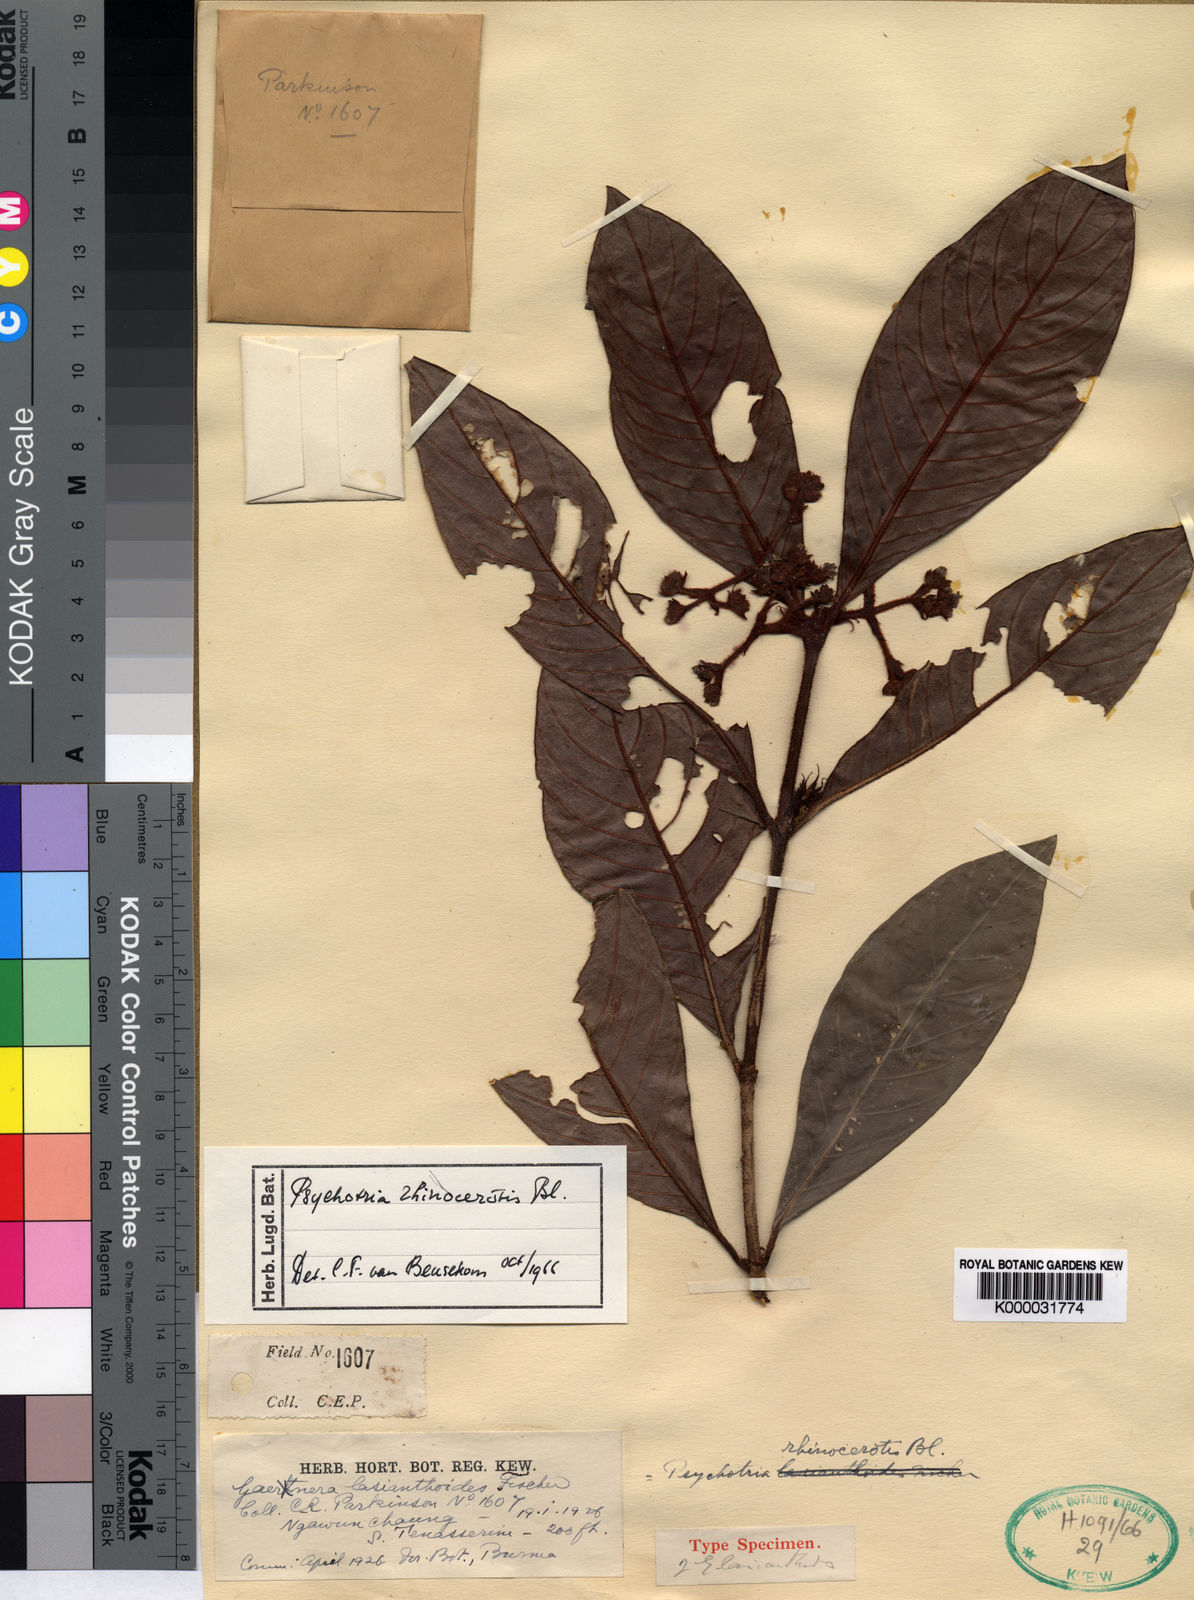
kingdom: Plantae
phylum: Tracheophyta
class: Magnoliopsida
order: Gentianales
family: Rubiaceae
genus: Psychotria
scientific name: Psychotria rhinocerotis
